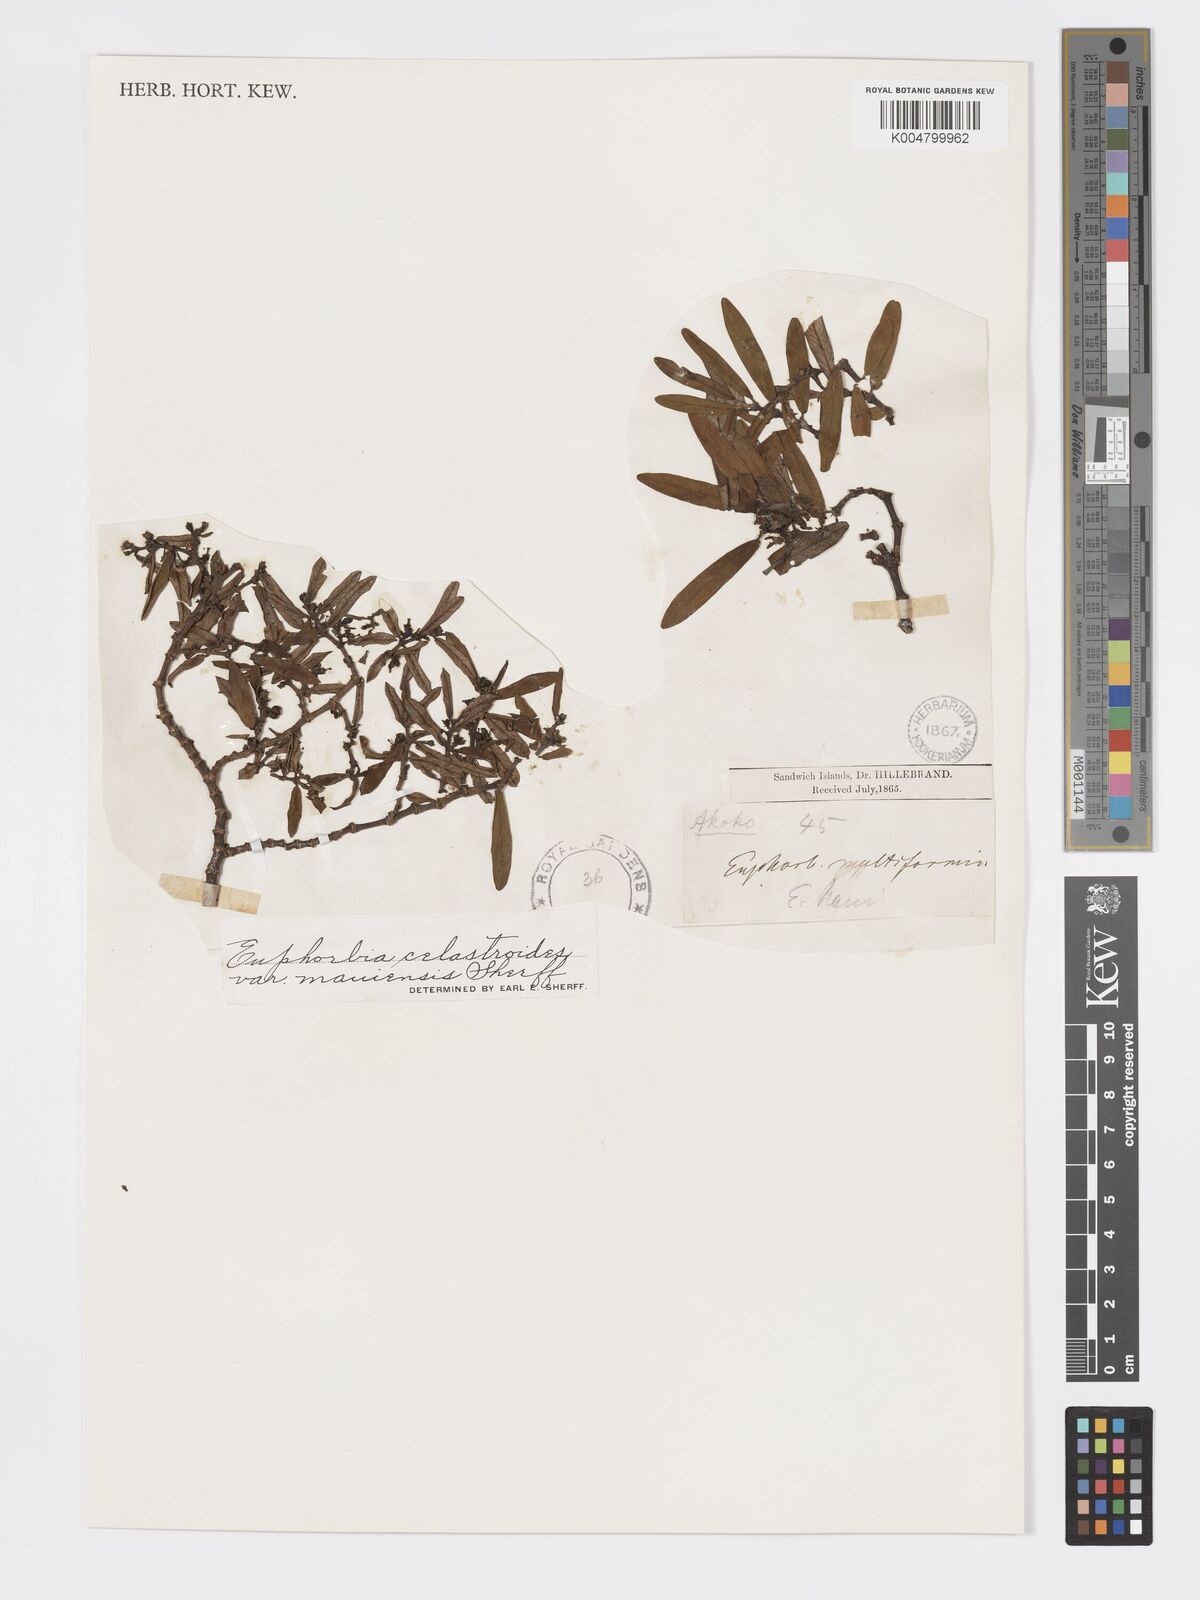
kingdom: Plantae
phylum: Tracheophyta
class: Magnoliopsida
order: Malpighiales
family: Euphorbiaceae
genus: Euphorbia
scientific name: Euphorbia celastroides
